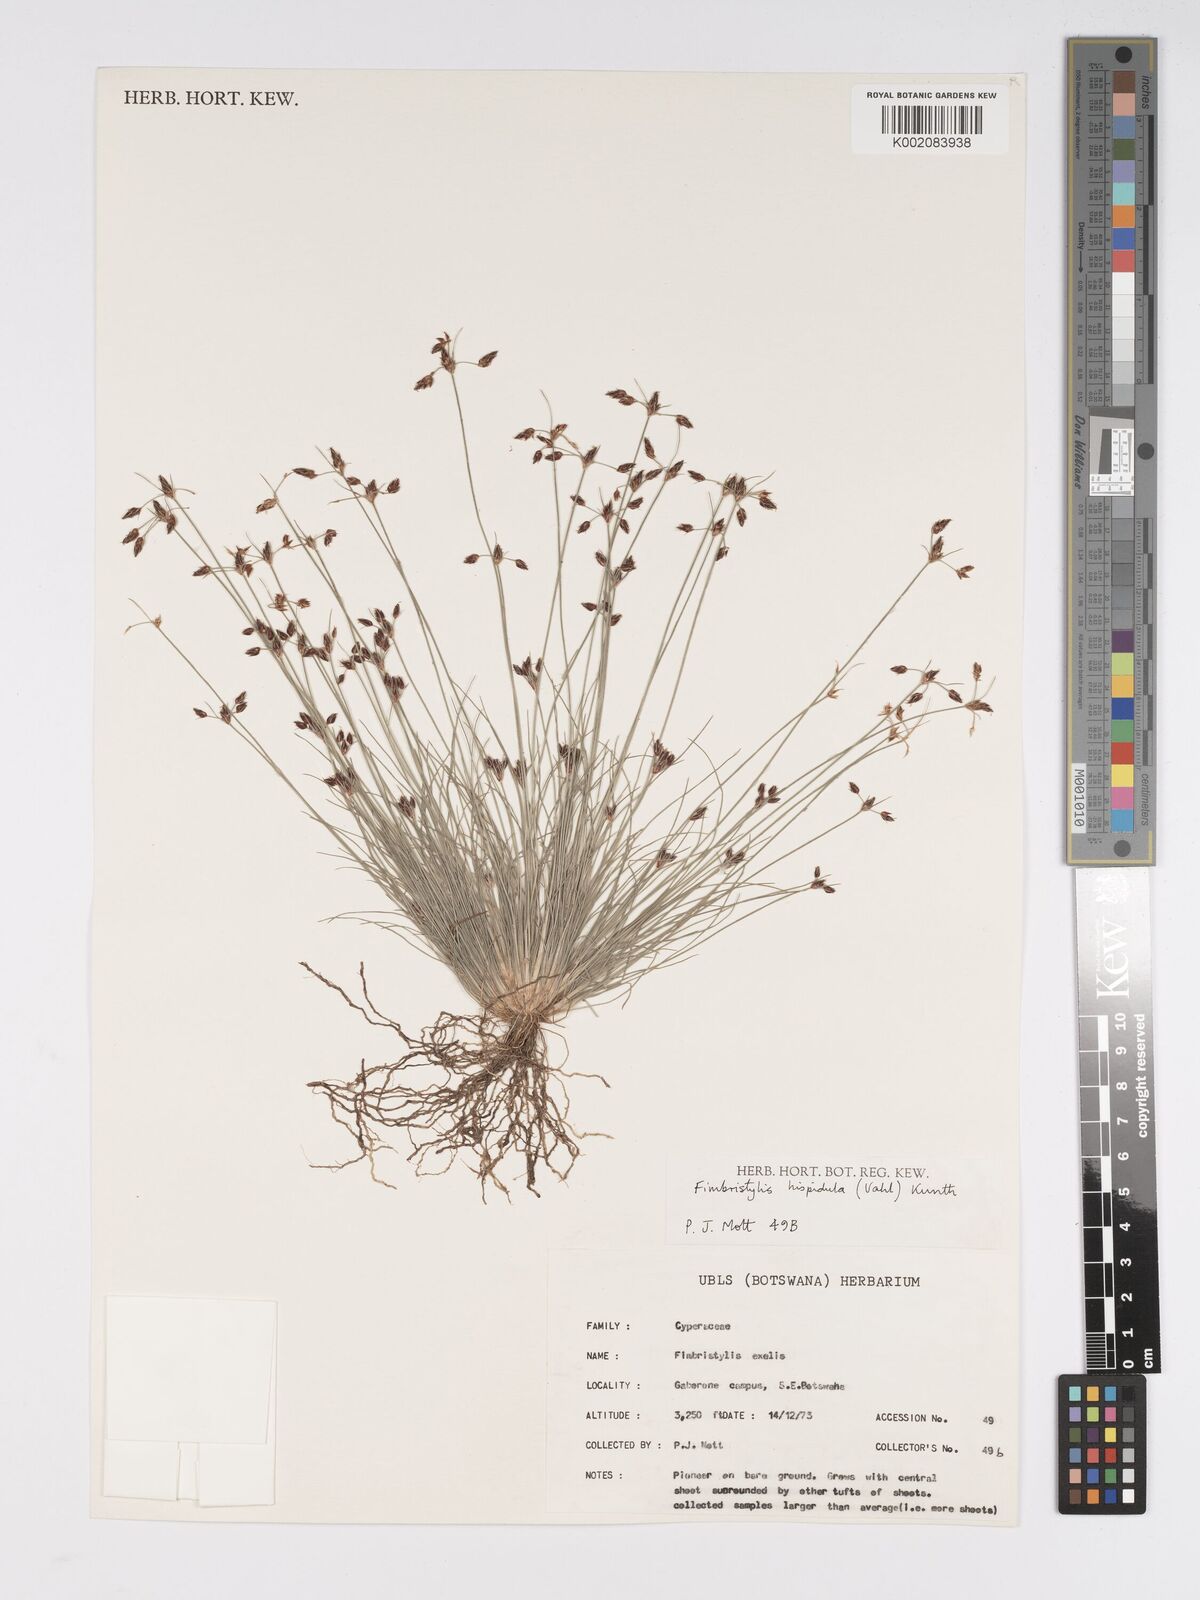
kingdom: Plantae
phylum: Tracheophyta
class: Liliopsida
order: Poales
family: Cyperaceae
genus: Bulbostylis
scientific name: Bulbostylis hispidula
